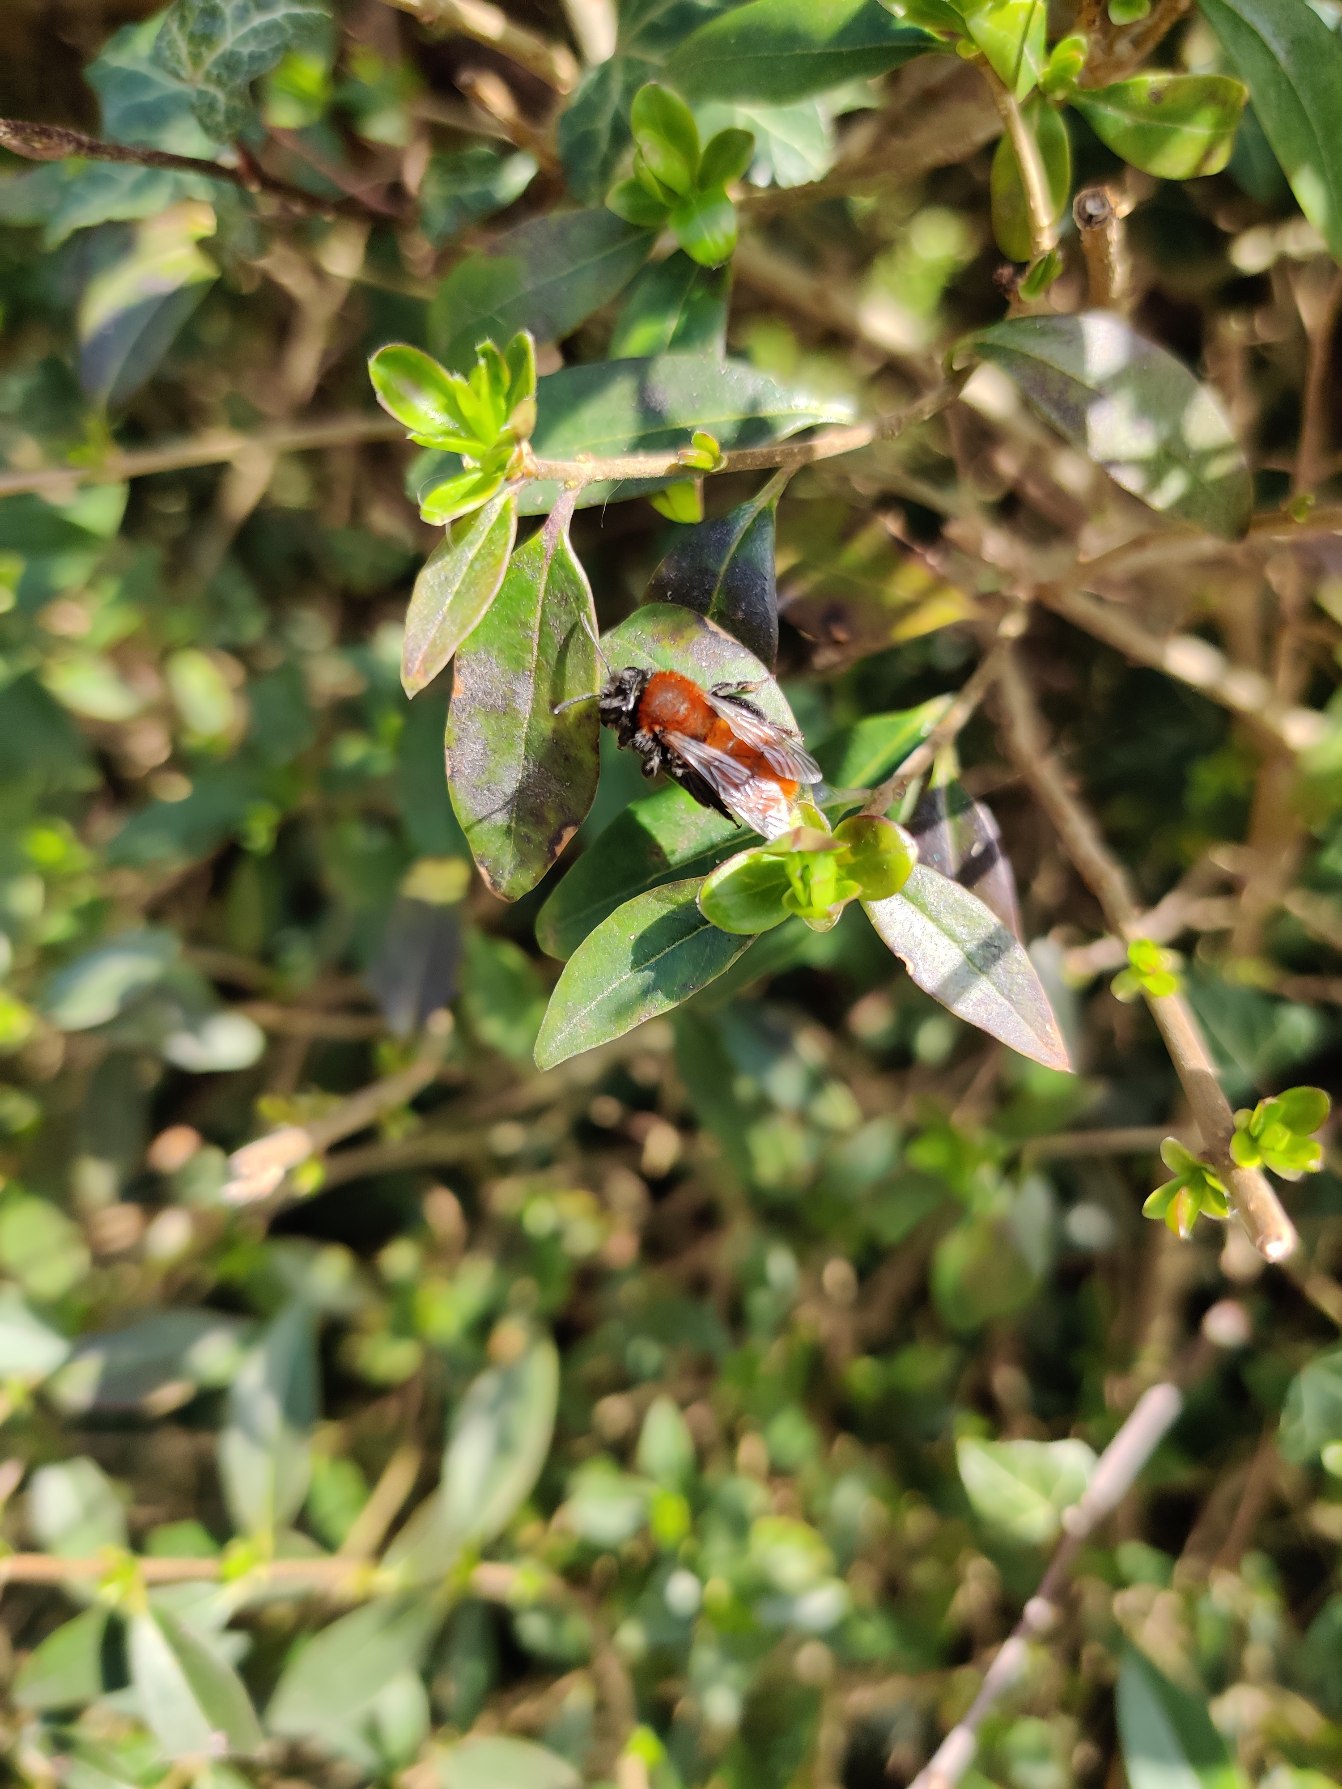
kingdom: Animalia
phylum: Arthropoda
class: Insecta
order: Hymenoptera
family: Andrenidae
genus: Andrena
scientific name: Andrena fulva
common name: Rødpelset jordbi
